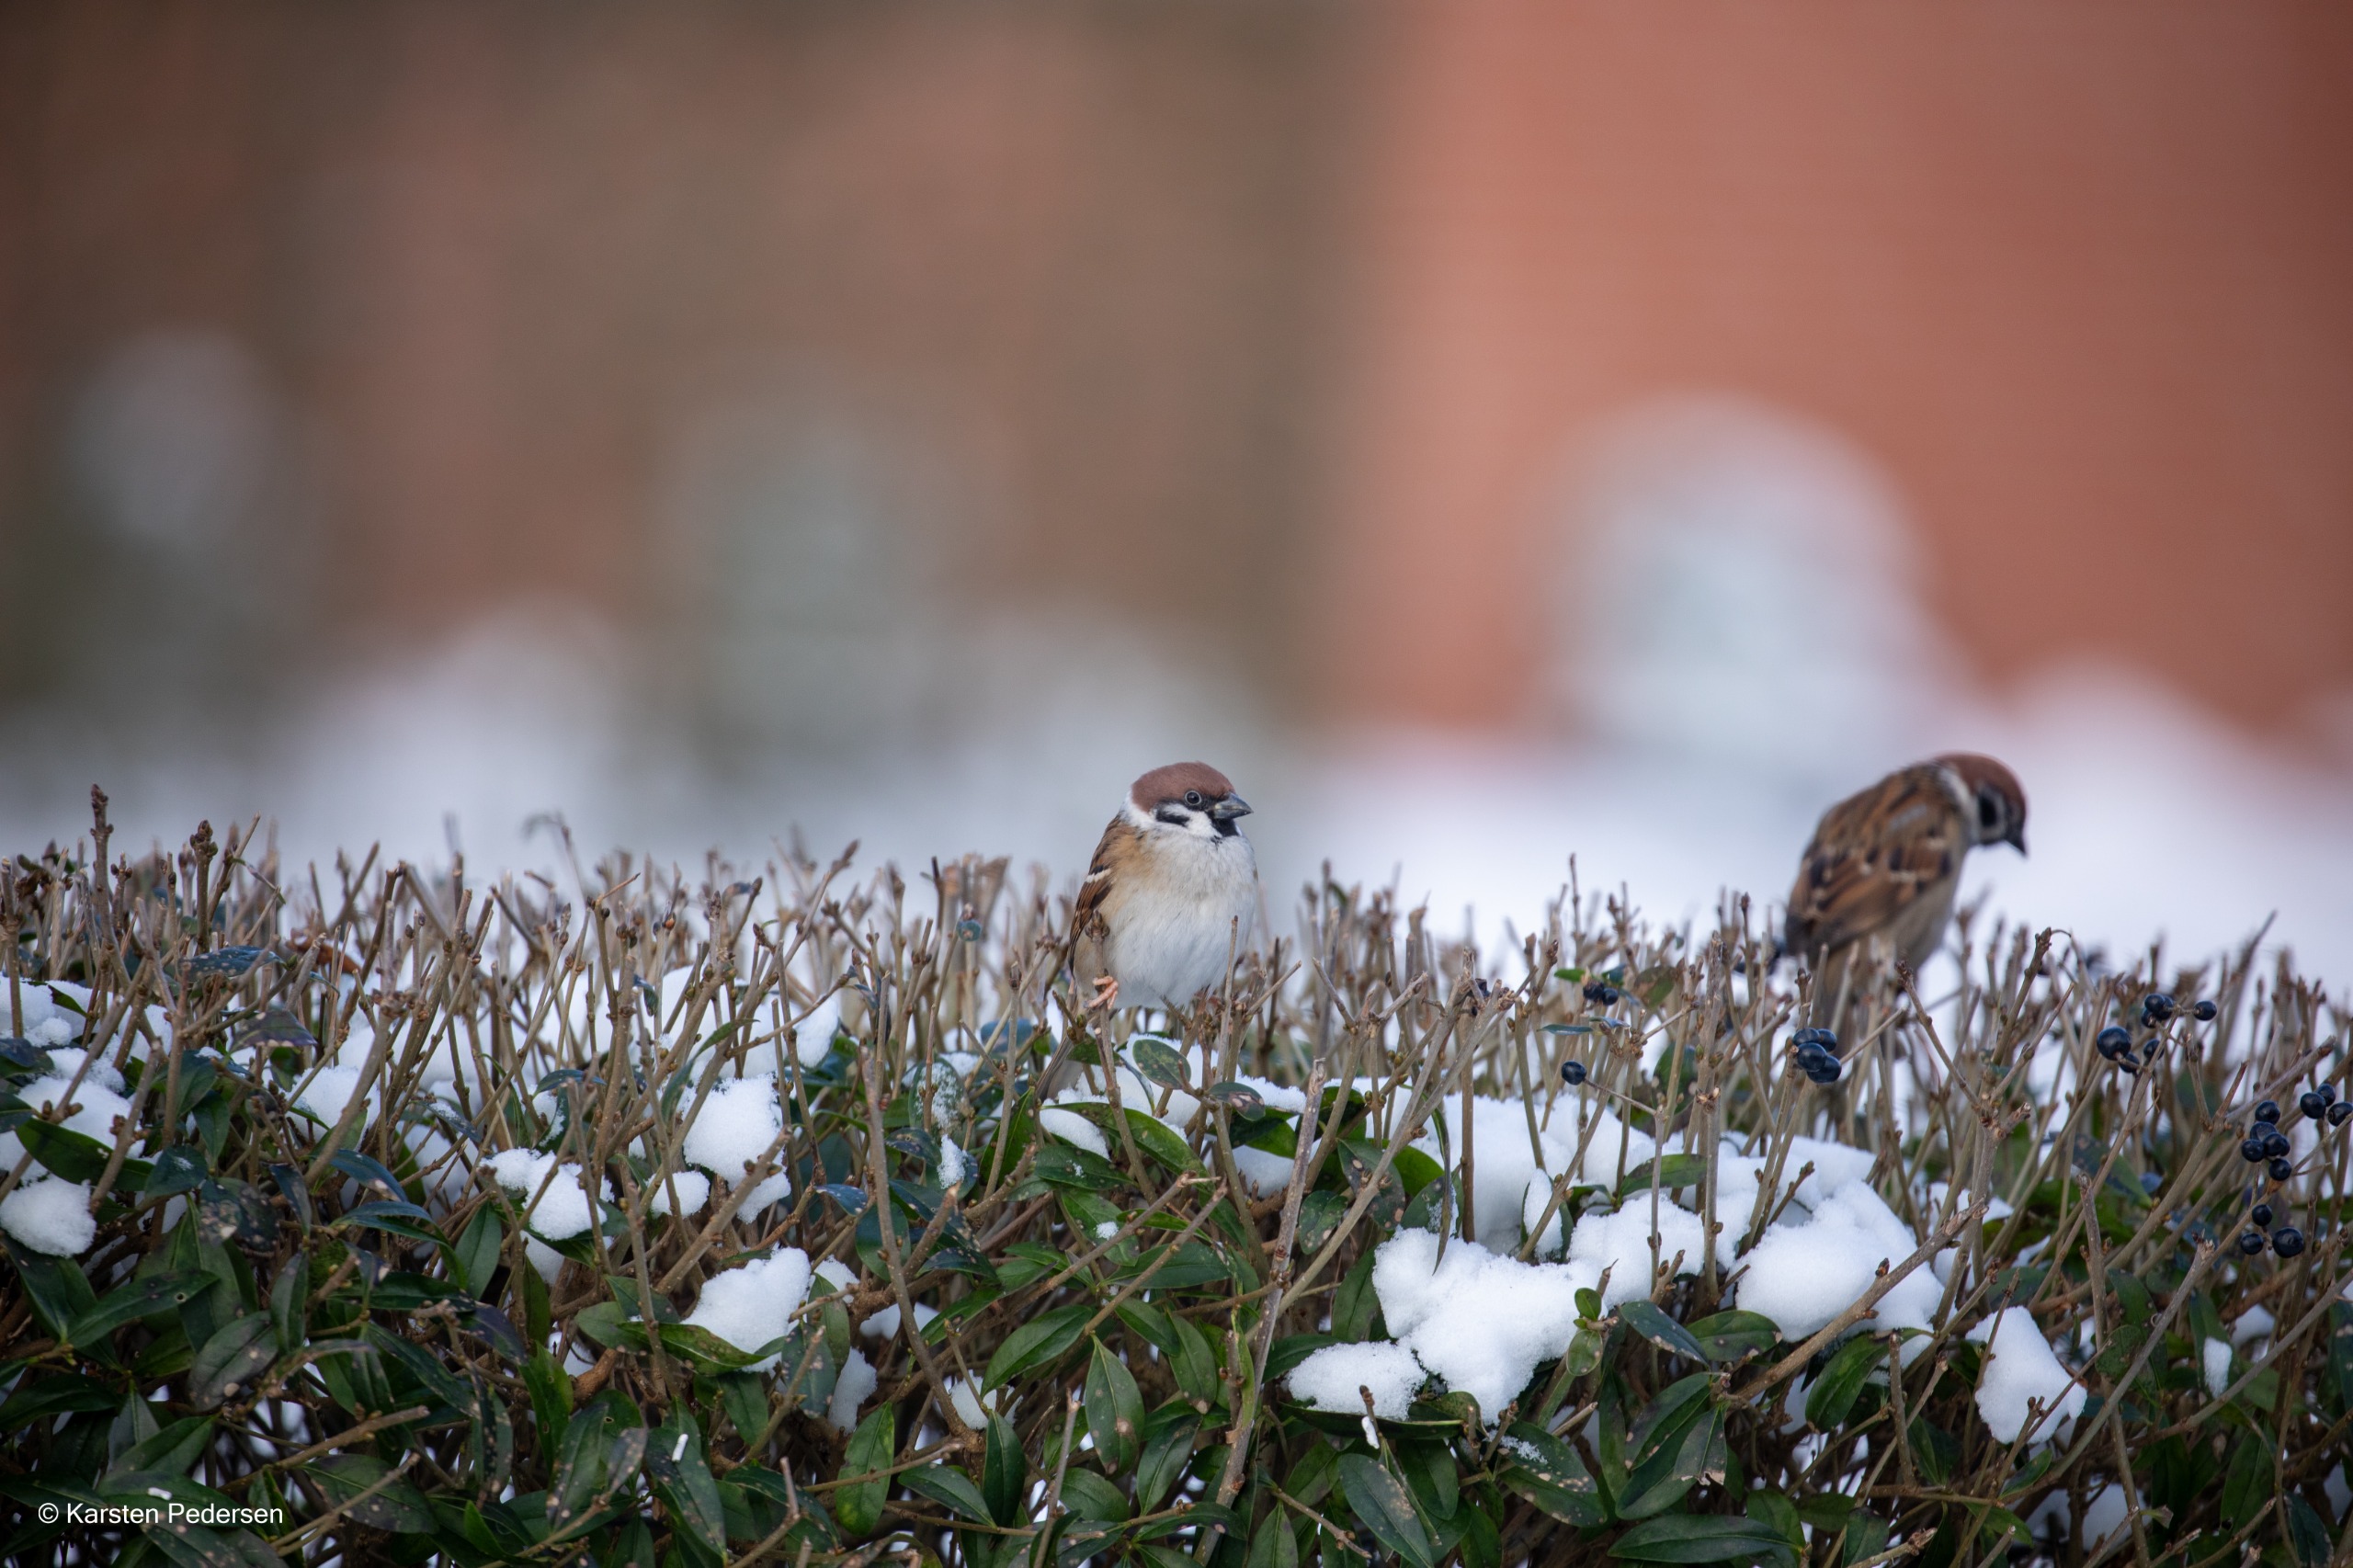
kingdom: Animalia
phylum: Chordata
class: Aves
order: Passeriformes
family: Passeridae
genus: Passer
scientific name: Passer montanus
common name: Skovspurv
